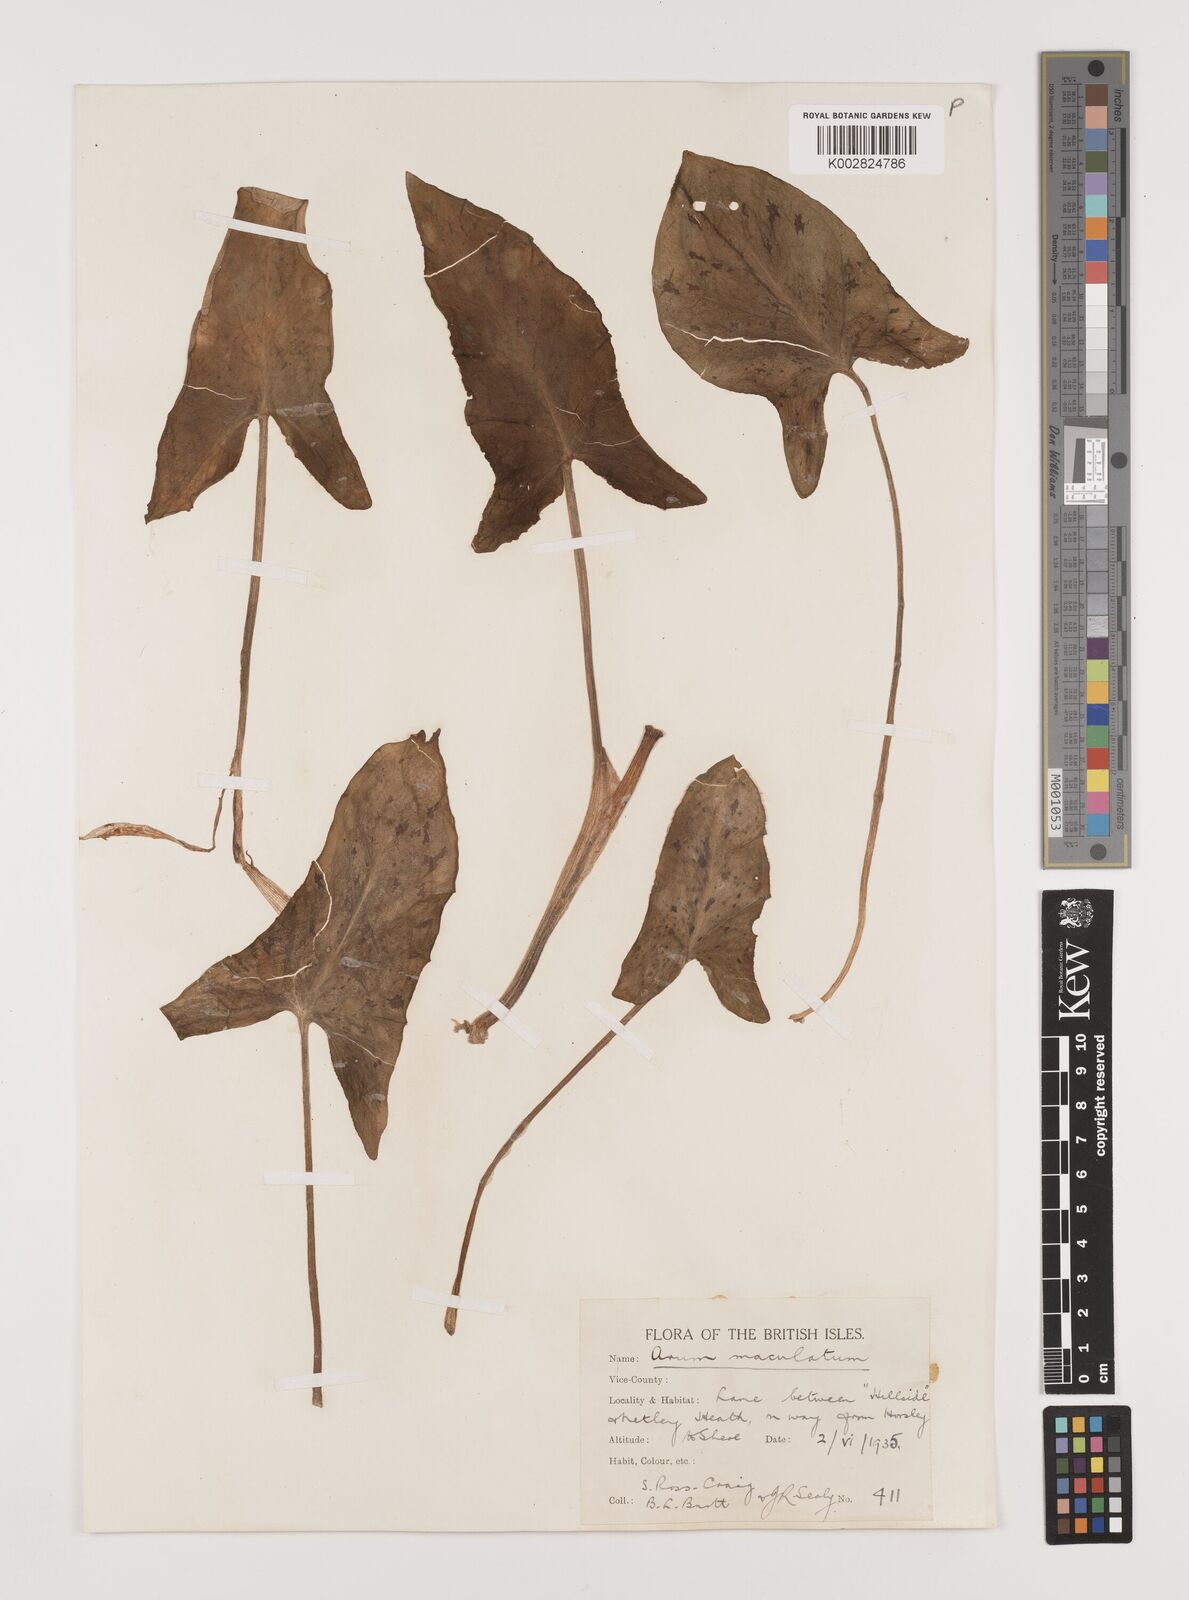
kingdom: Plantae
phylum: Tracheophyta
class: Liliopsida
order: Alismatales
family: Araceae
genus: Arum
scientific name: Arum maculatum
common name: Lords-and-ladies
